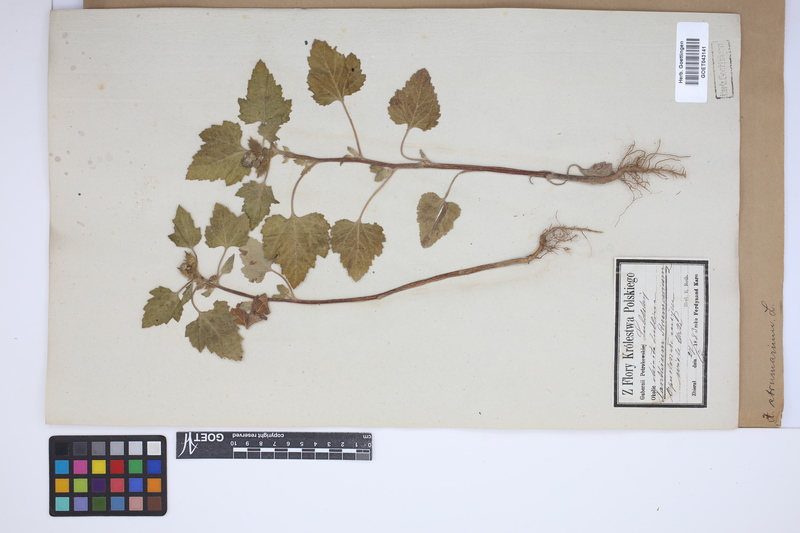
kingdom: Plantae
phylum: Tracheophyta
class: Magnoliopsida
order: Asterales
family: Asteraceae
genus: Xanthium
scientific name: Xanthium strumarium
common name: Rough cocklebur
